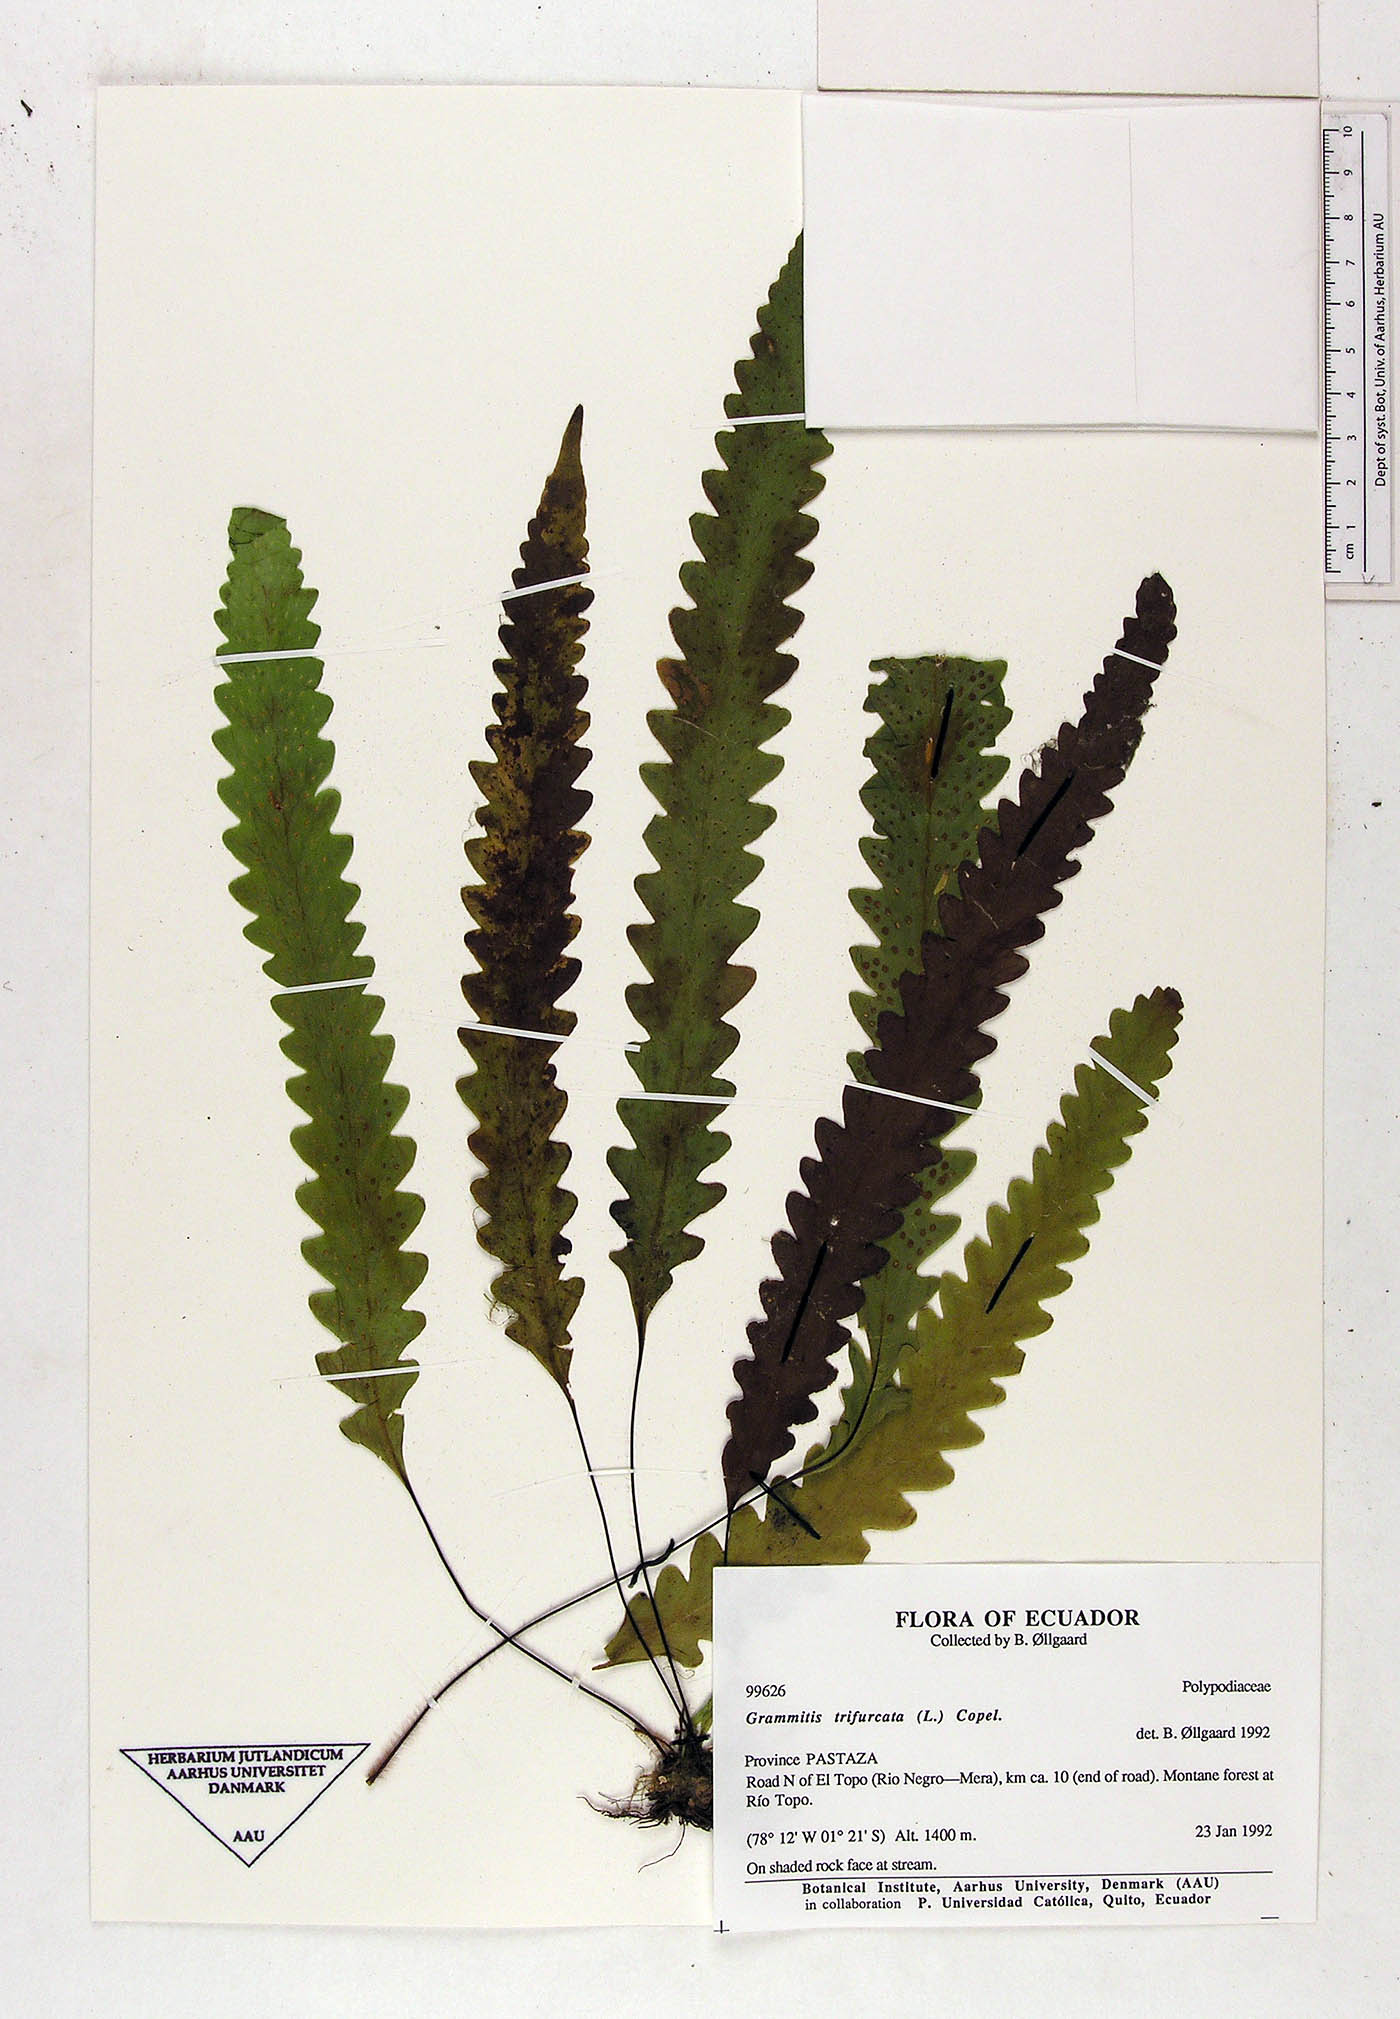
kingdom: Plantae
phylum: Tracheophyta
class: Polypodiopsida
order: Polypodiales
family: Polypodiaceae
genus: Enterosora
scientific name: Enterosora trifurcata
